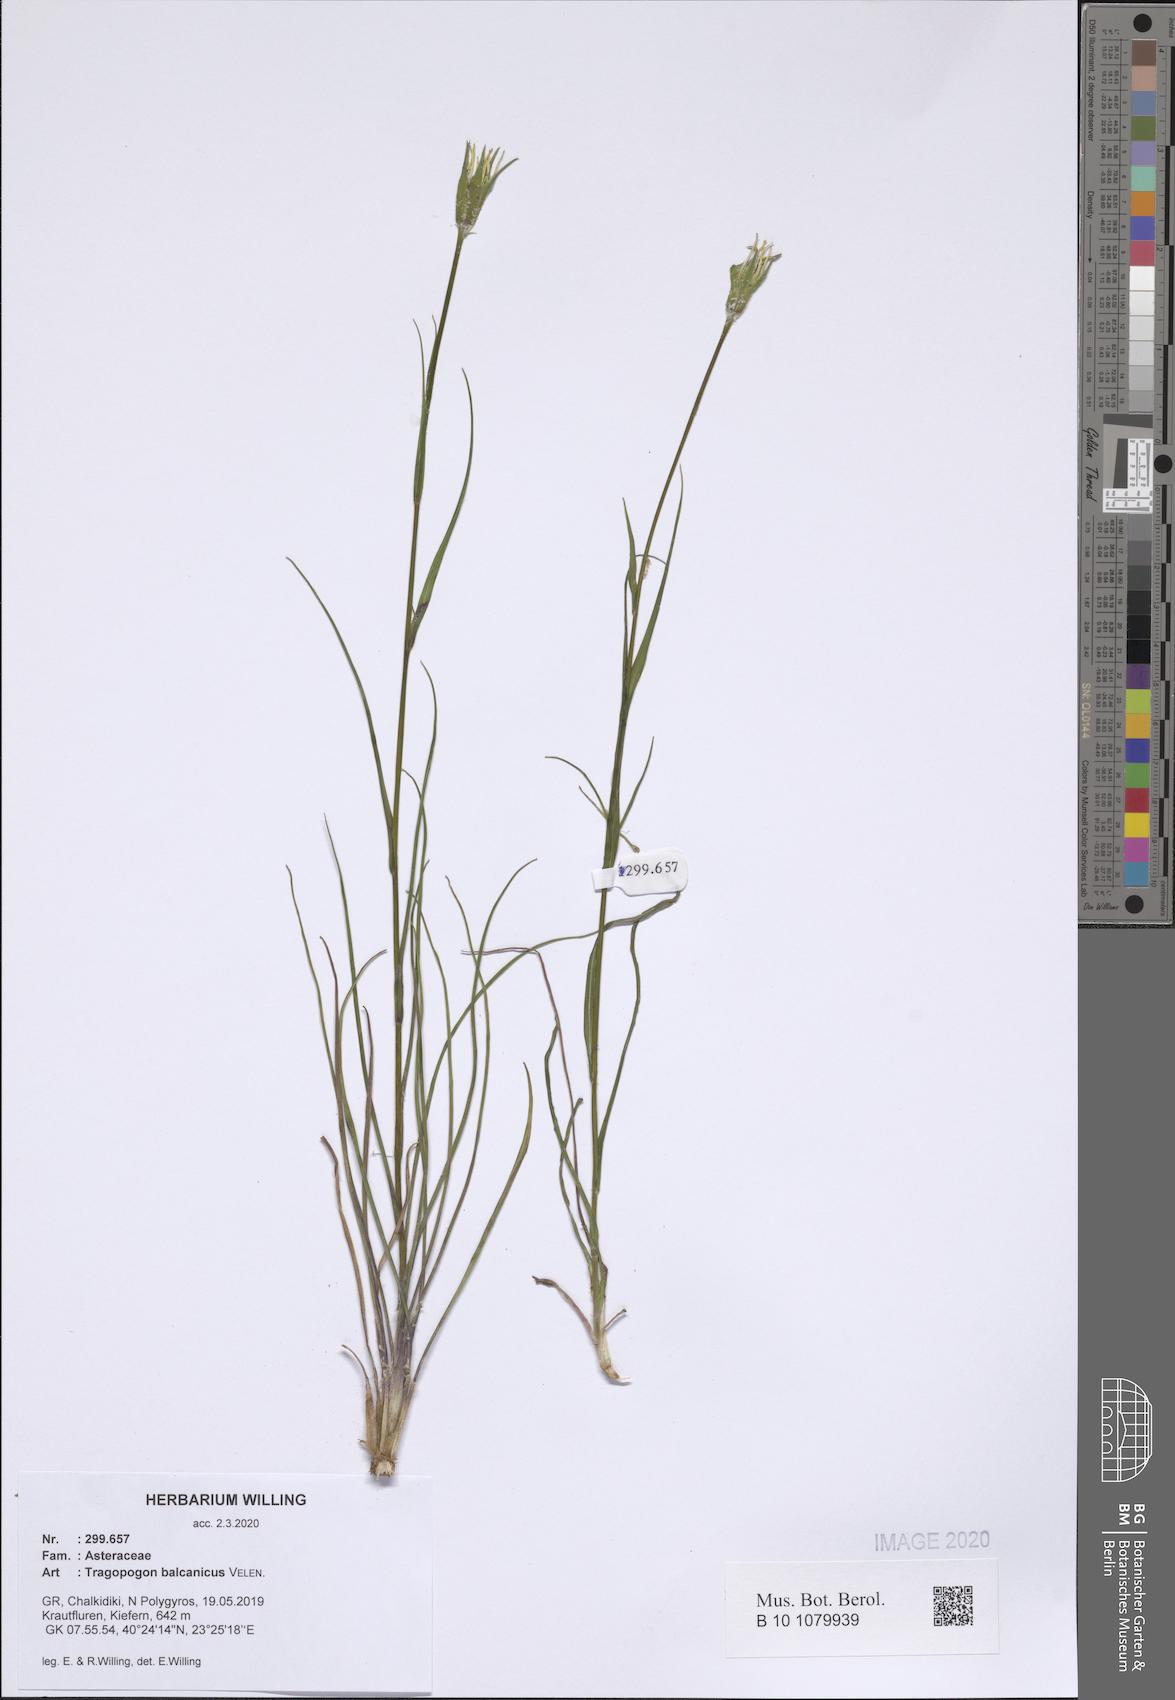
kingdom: Plantae
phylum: Tracheophyta
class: Magnoliopsida
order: Asterales
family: Asteraceae
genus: Tragopogon
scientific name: Tragopogon balcanicus
